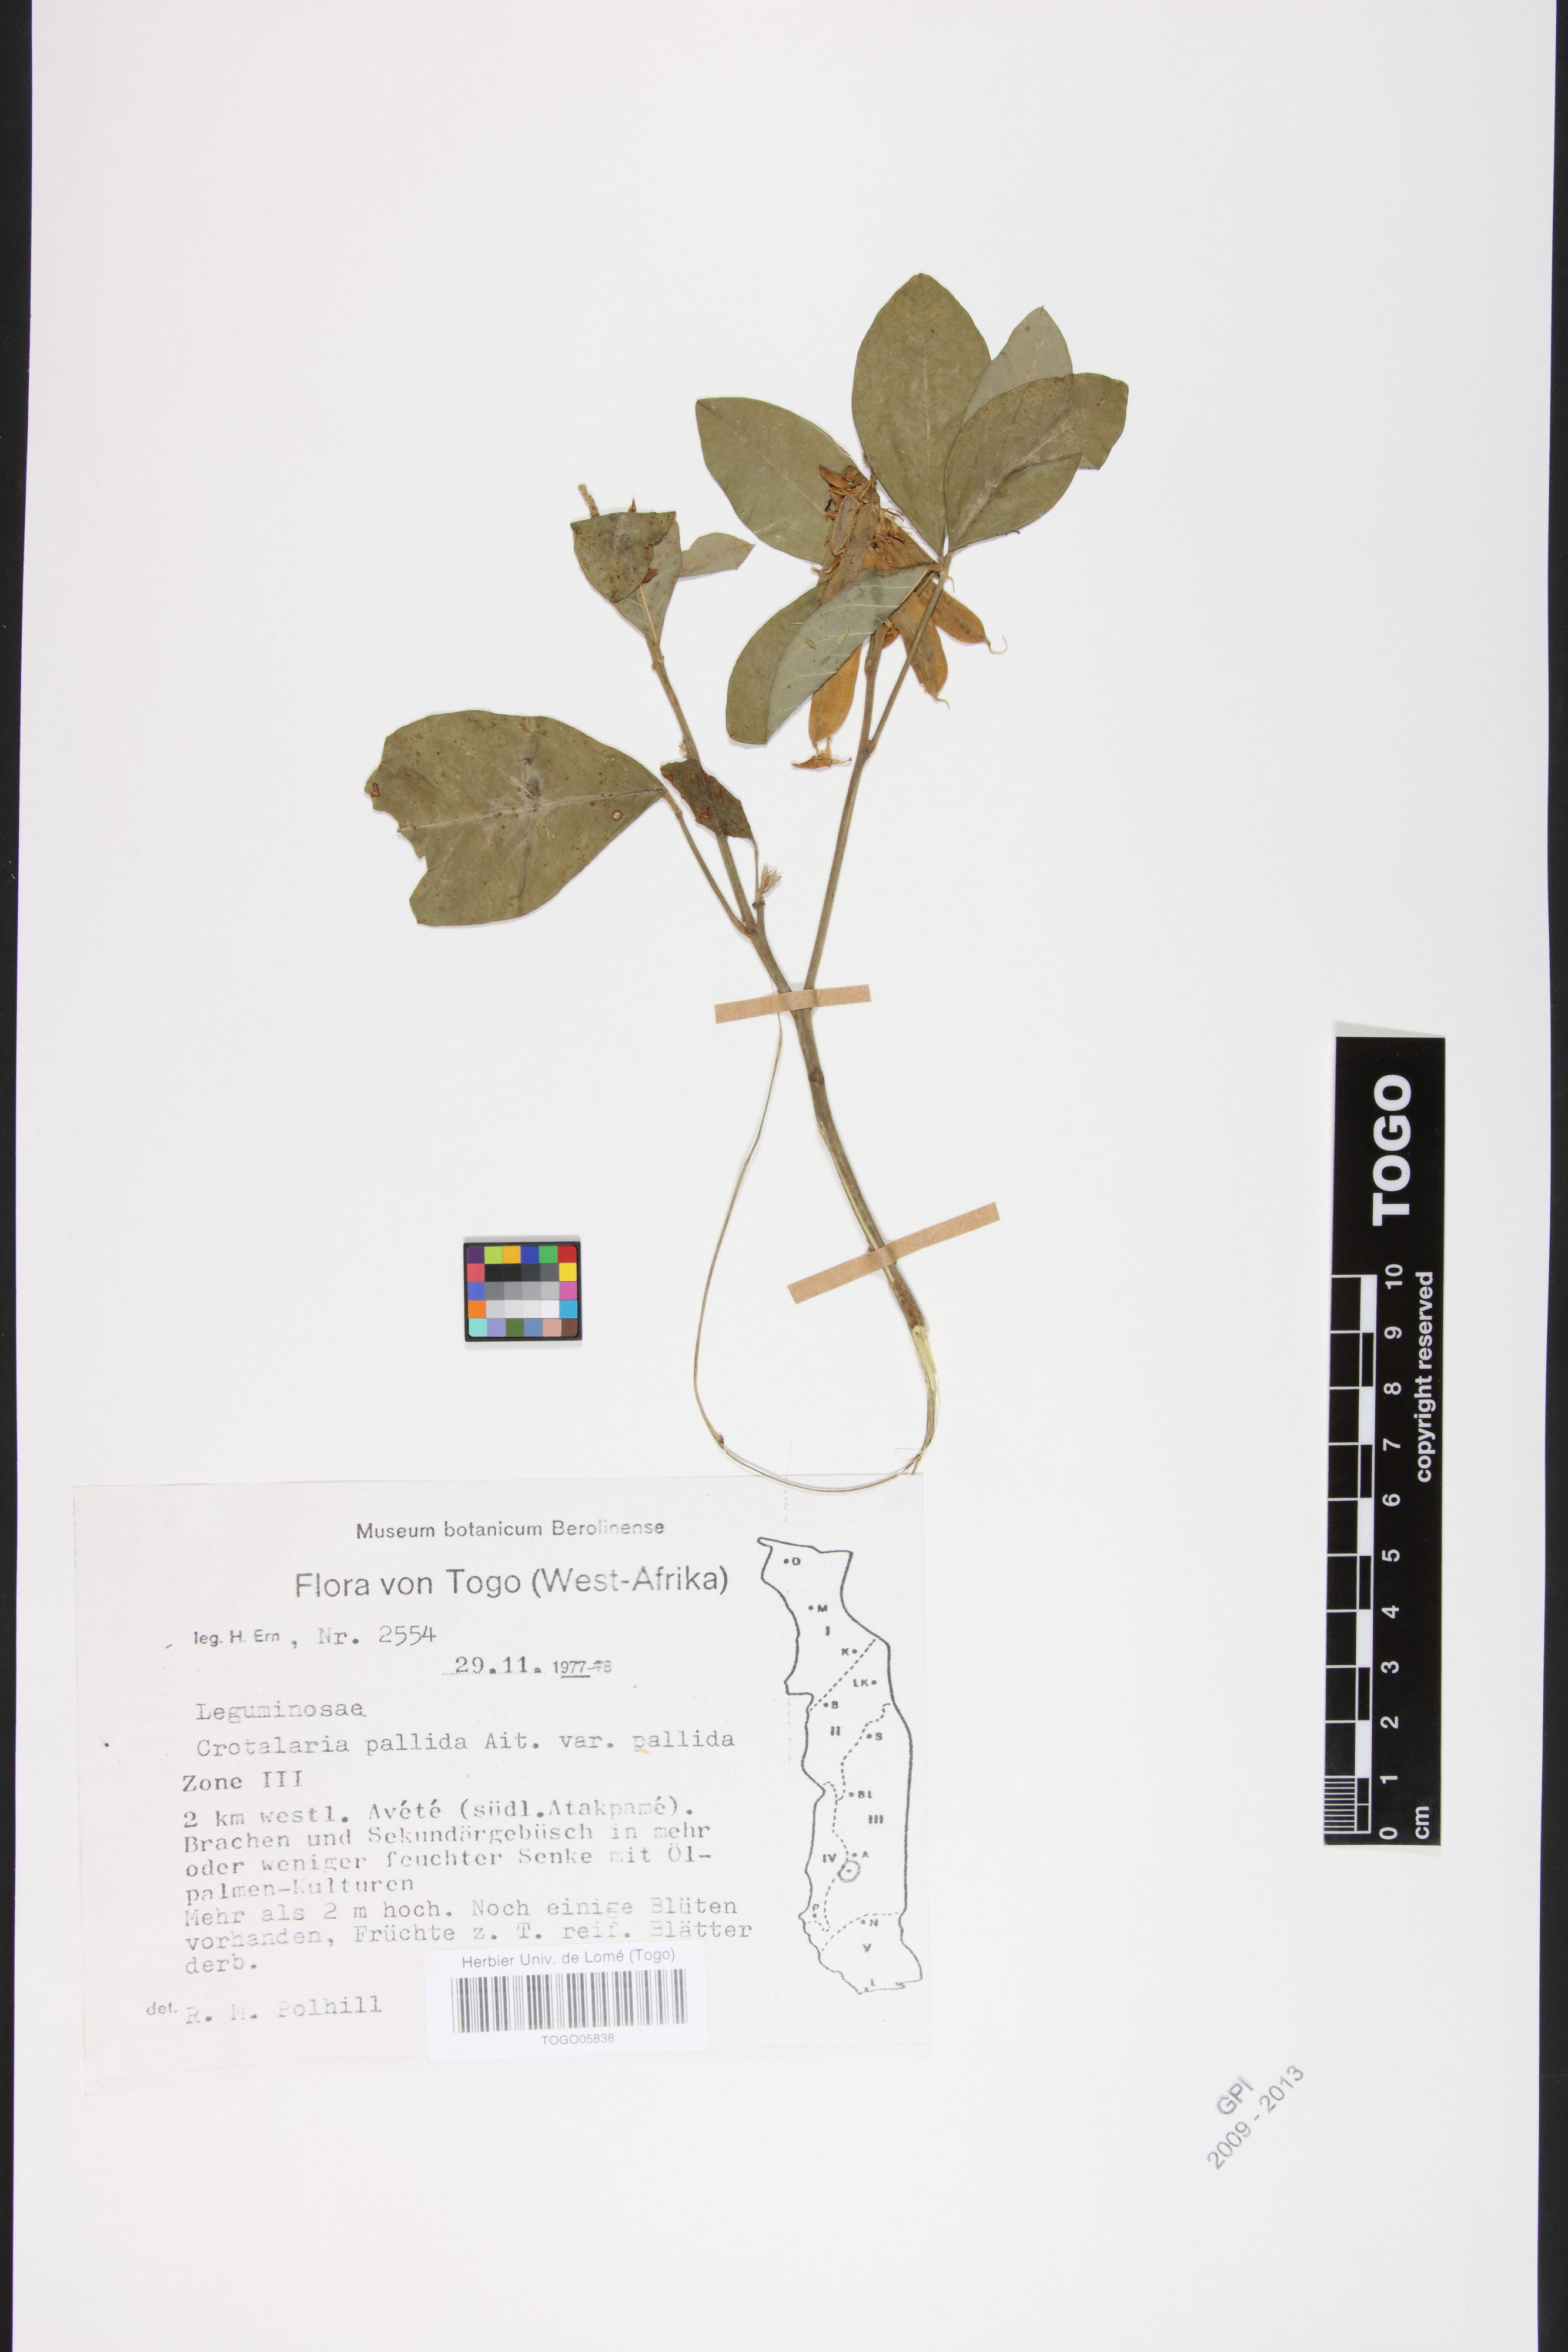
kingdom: Plantae
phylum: Tracheophyta
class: Magnoliopsida
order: Fabales
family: Fabaceae
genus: Crotalaria
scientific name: Crotalaria pallida
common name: Smooth rattlebox
